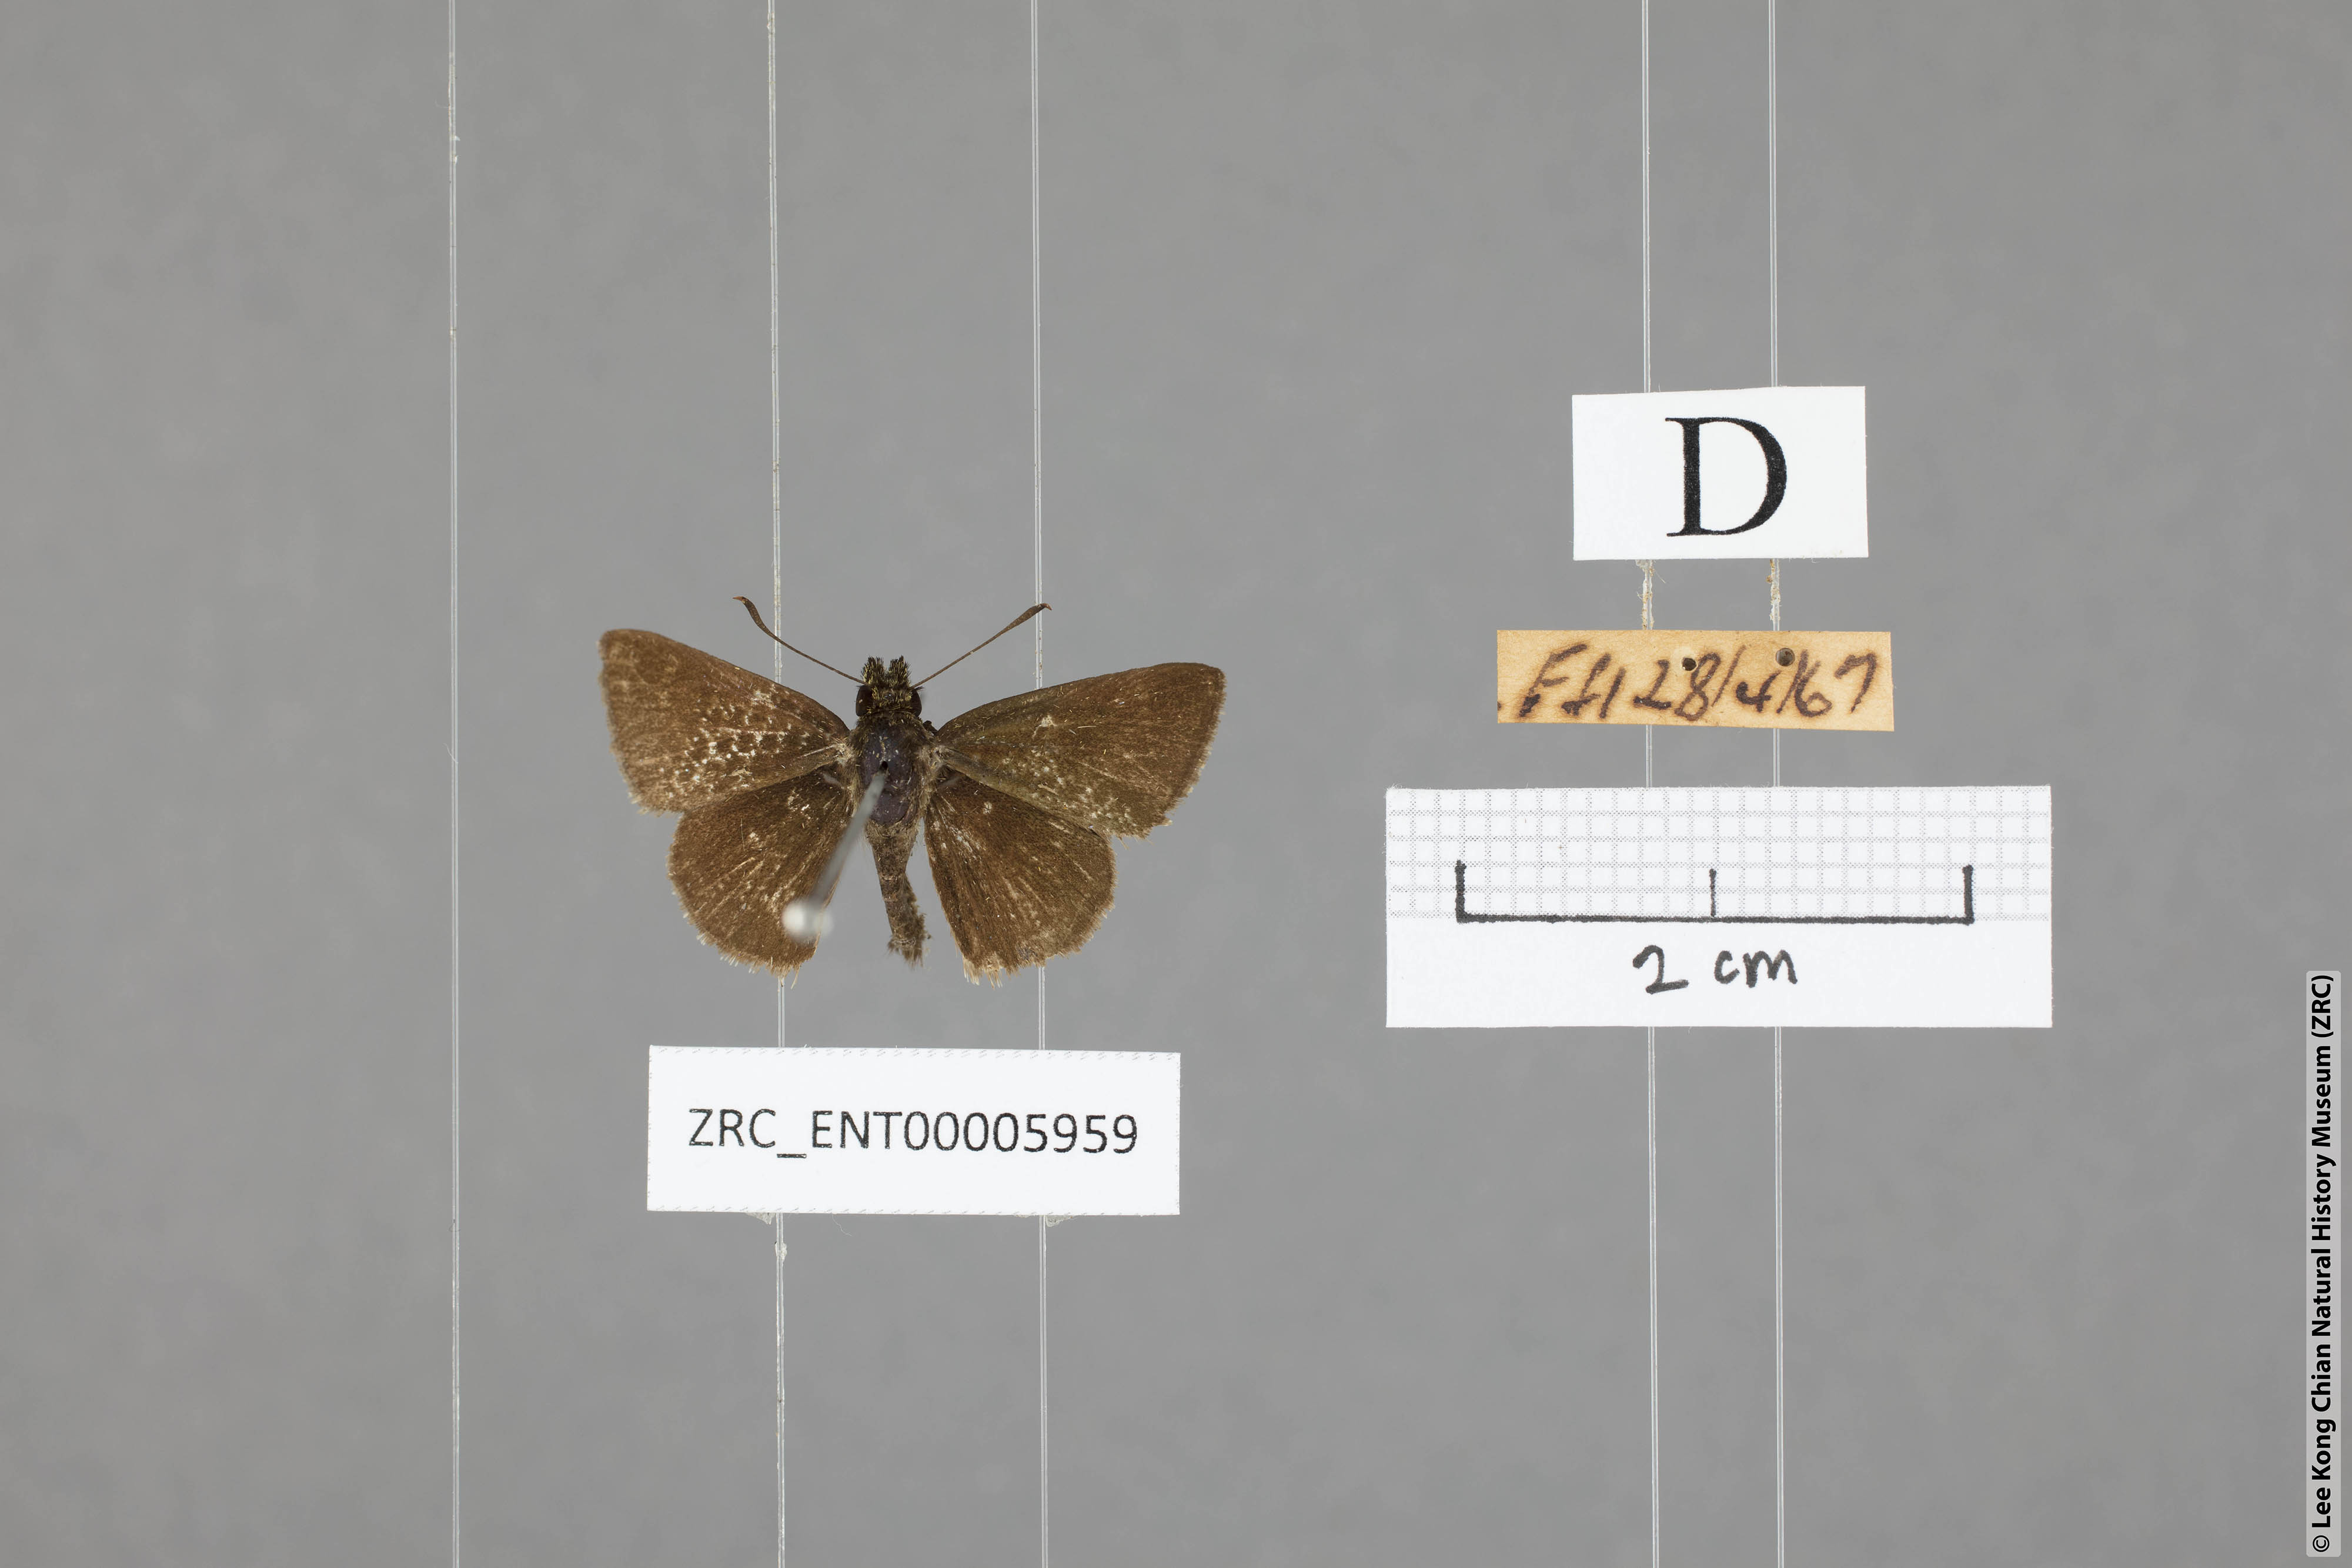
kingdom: Animalia
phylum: Arthropoda
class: Insecta
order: Lepidoptera
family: Hesperiidae
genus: Aeromachus
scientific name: Aeromachus jhora
